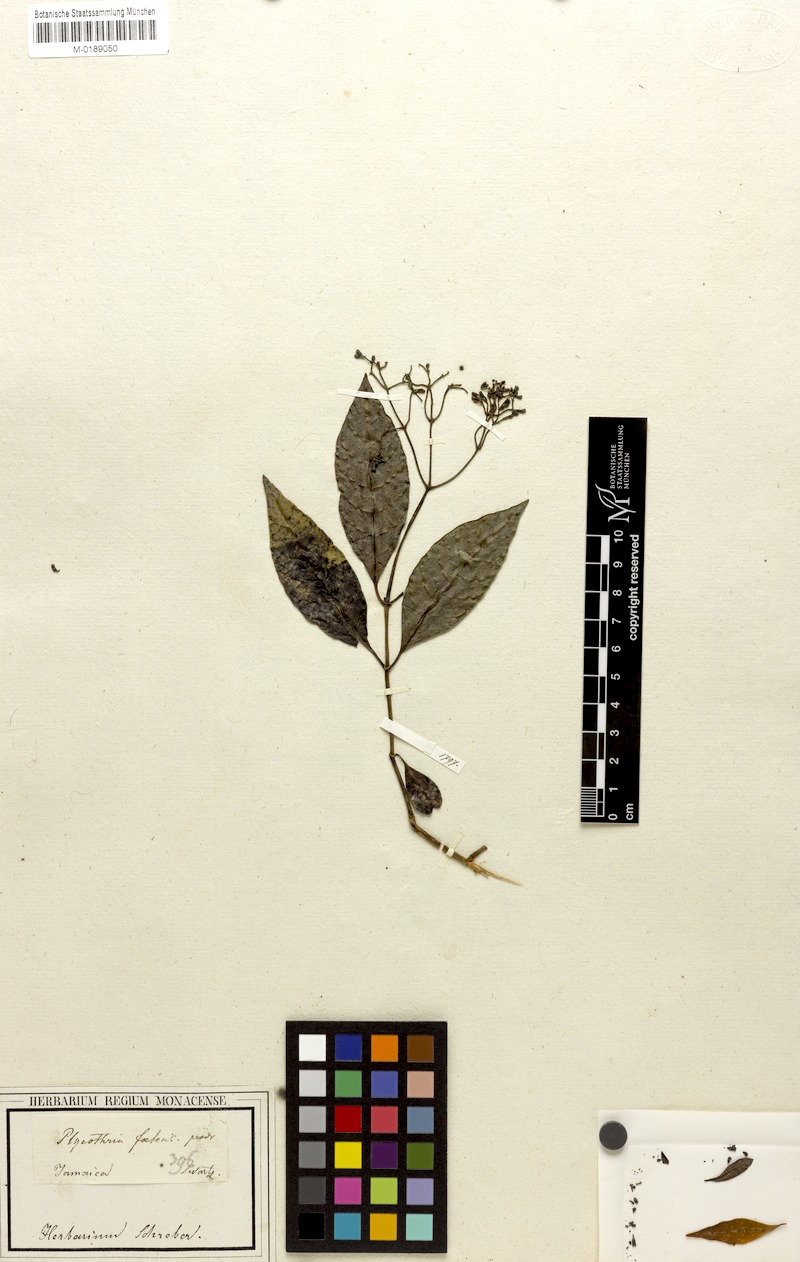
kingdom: Plantae
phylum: Tracheophyta
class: Magnoliopsida
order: Gentianales
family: Rubiaceae
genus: Psychotria
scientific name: Psychotria foetens
